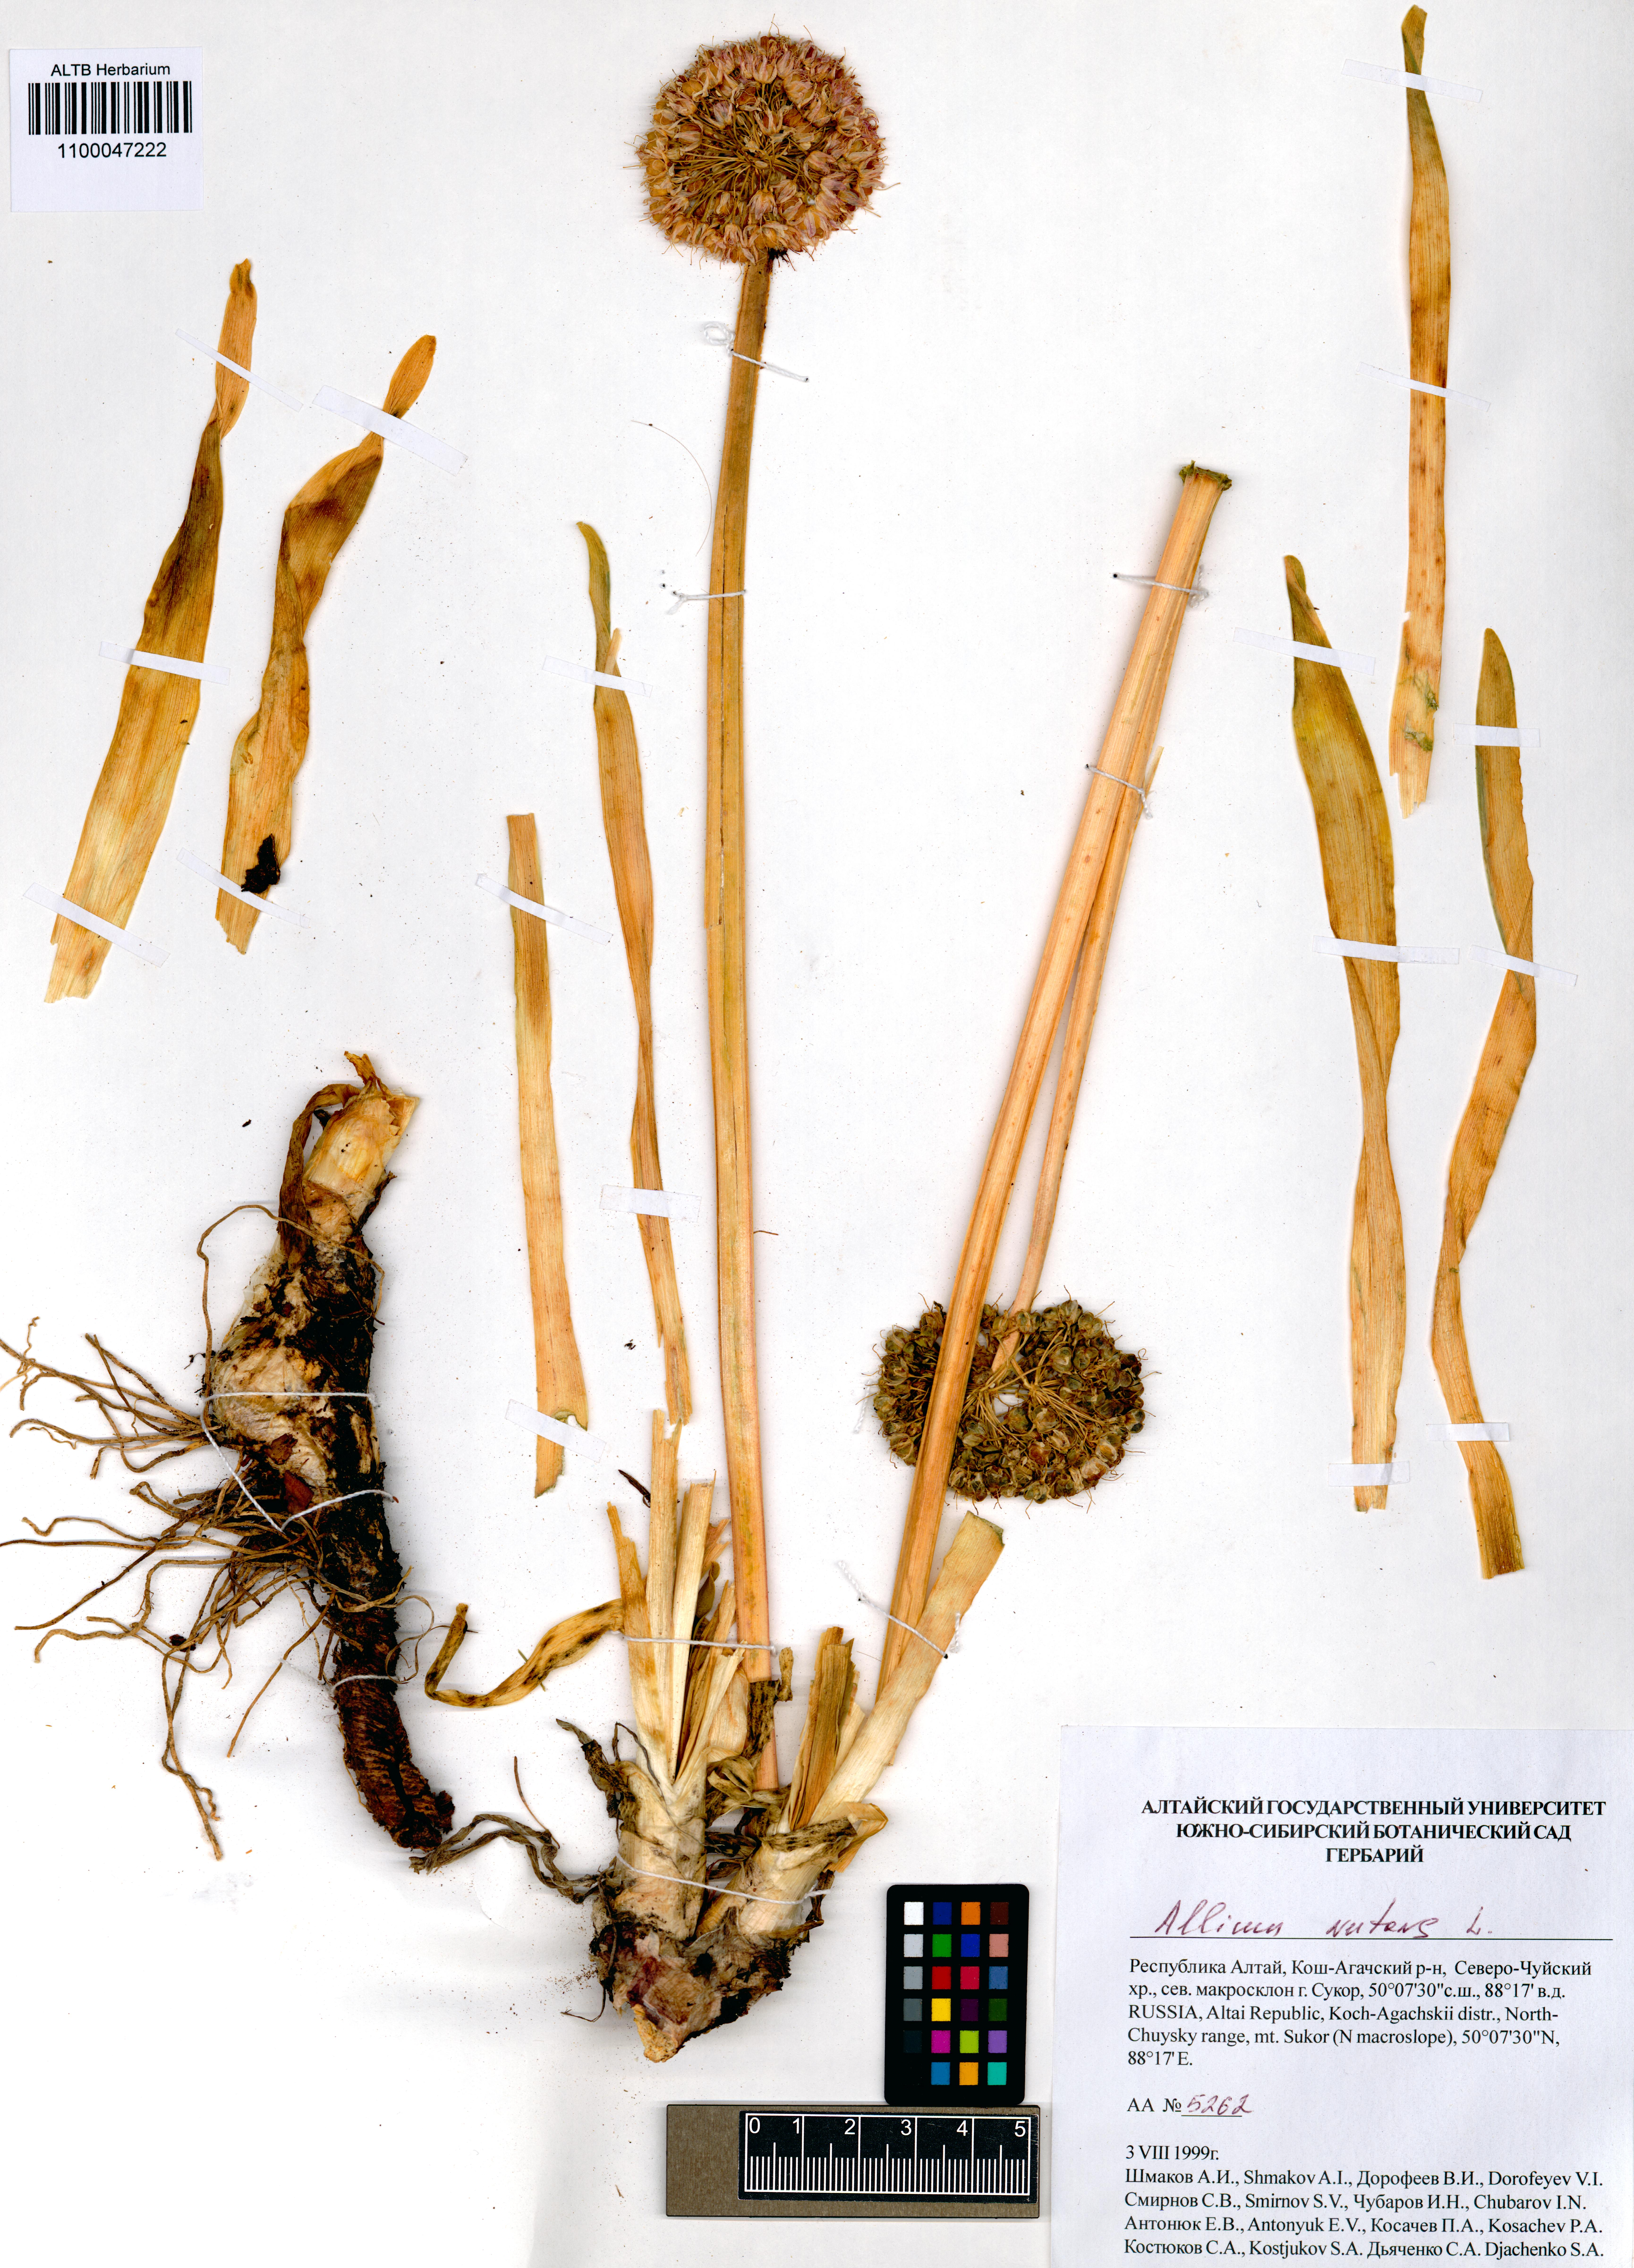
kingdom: Plantae
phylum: Tracheophyta
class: Liliopsida
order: Asparagales
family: Amaryllidaceae
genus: Allium
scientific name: Allium nutans
